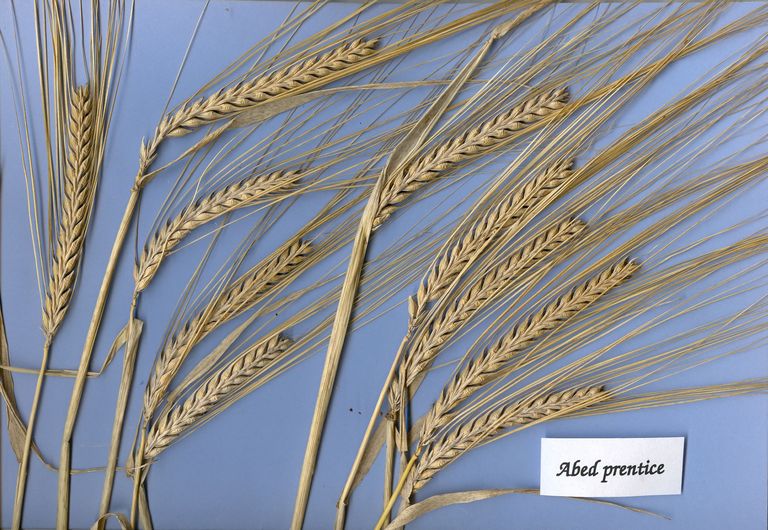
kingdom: Plantae
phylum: Tracheophyta
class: Liliopsida
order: Poales
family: Poaceae
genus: Hordeum
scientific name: Hordeum vulgare
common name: Common barley
